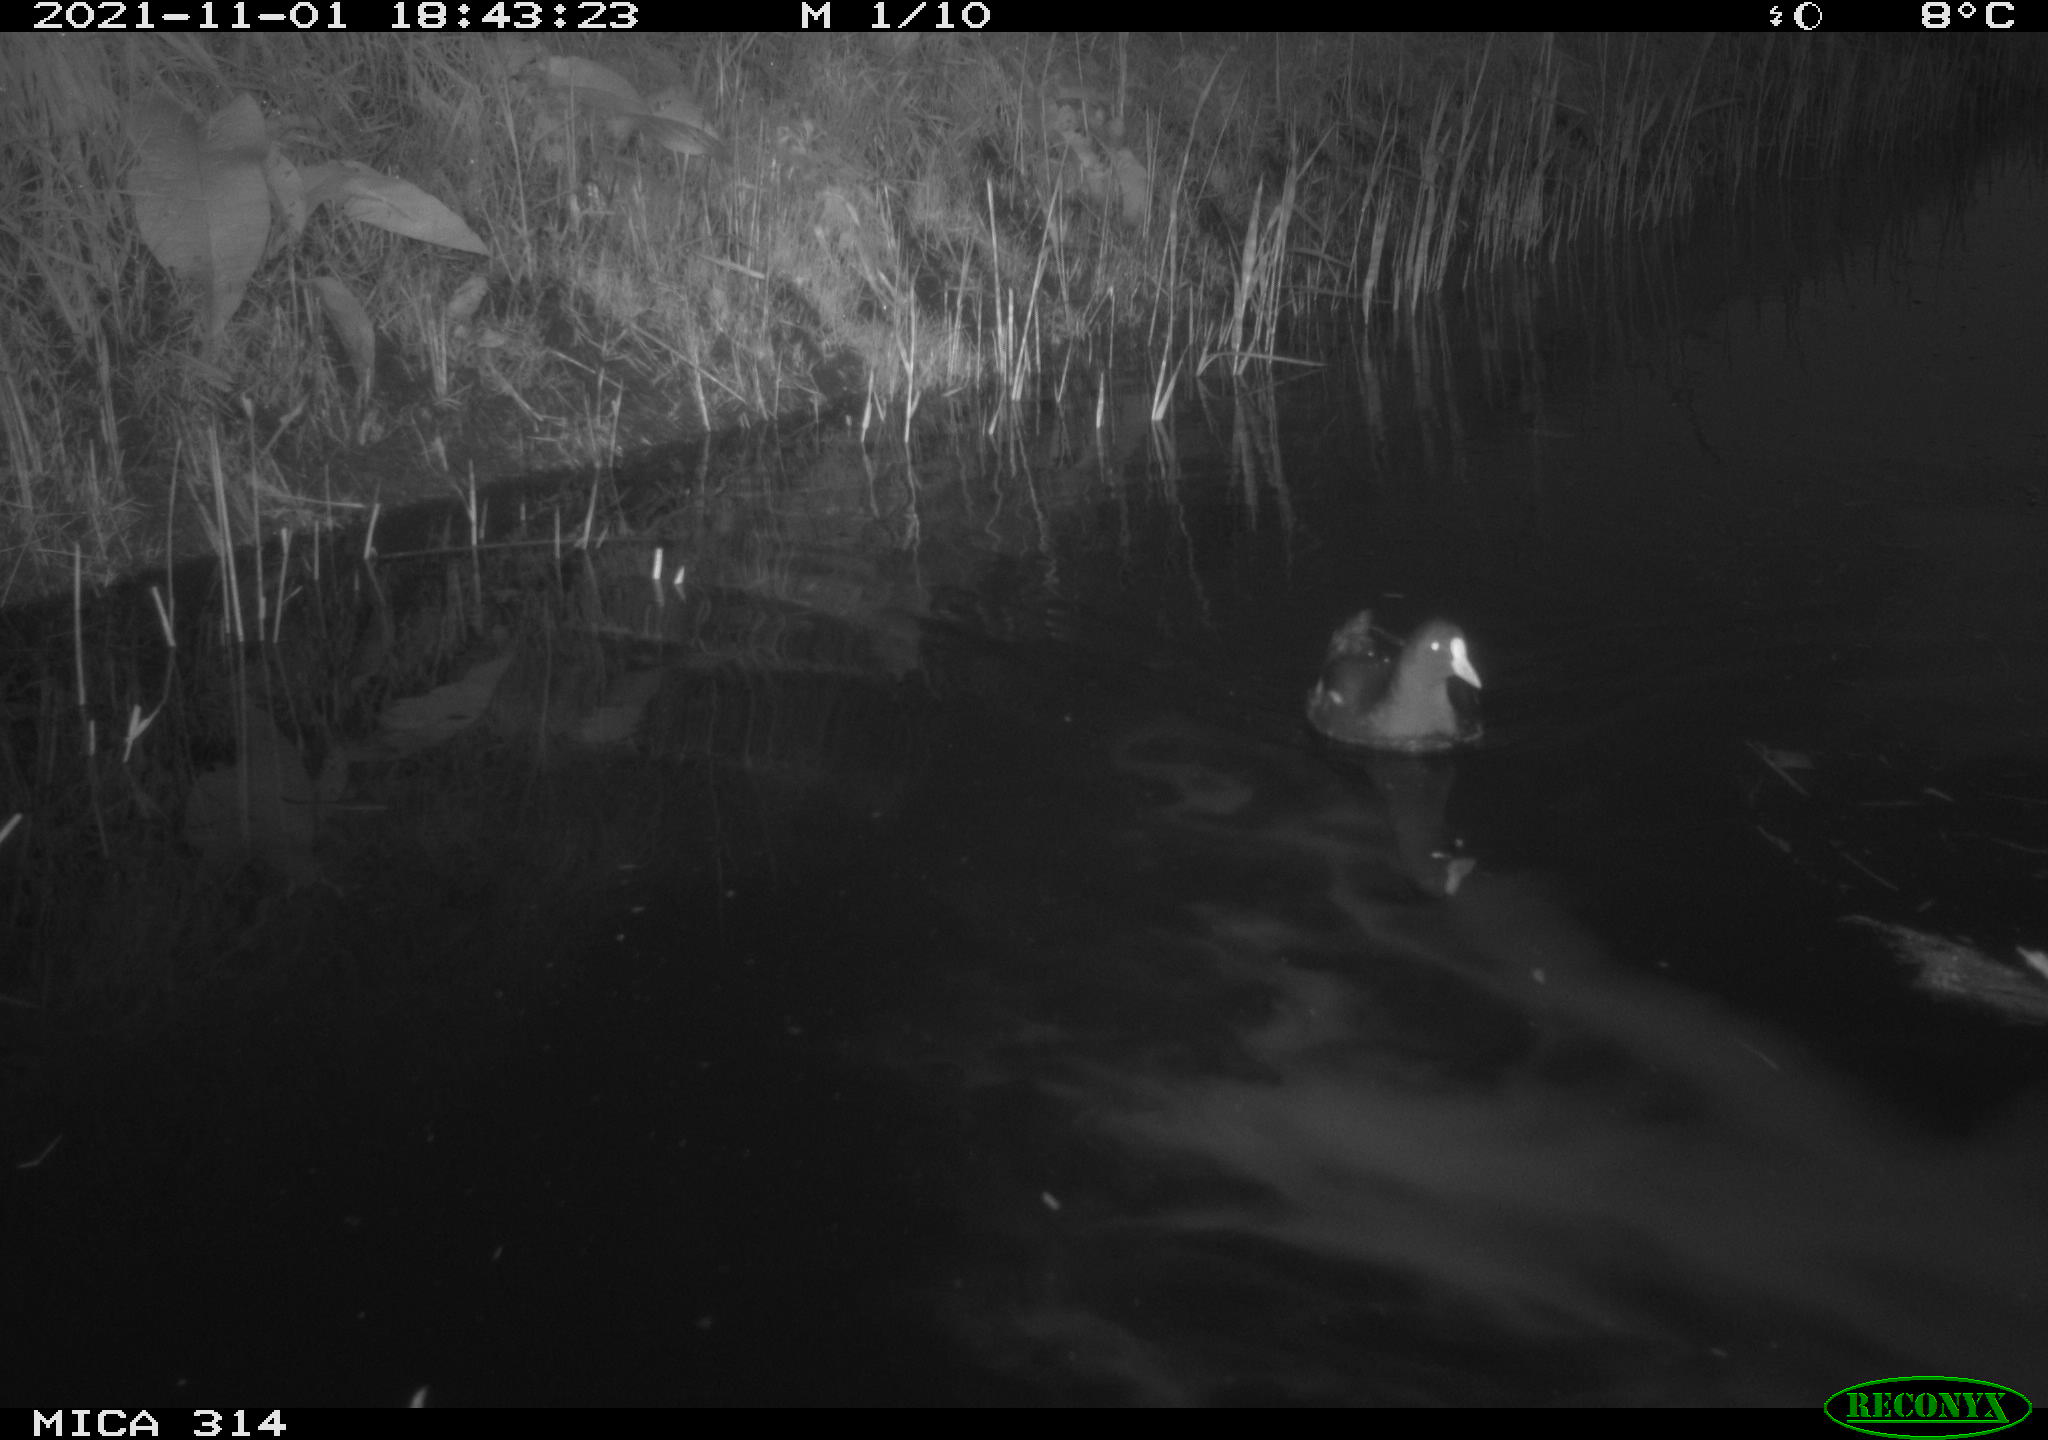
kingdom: Animalia
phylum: Chordata
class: Aves
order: Gruiformes
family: Rallidae
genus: Gallinula
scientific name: Gallinula chloropus
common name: Common moorhen
